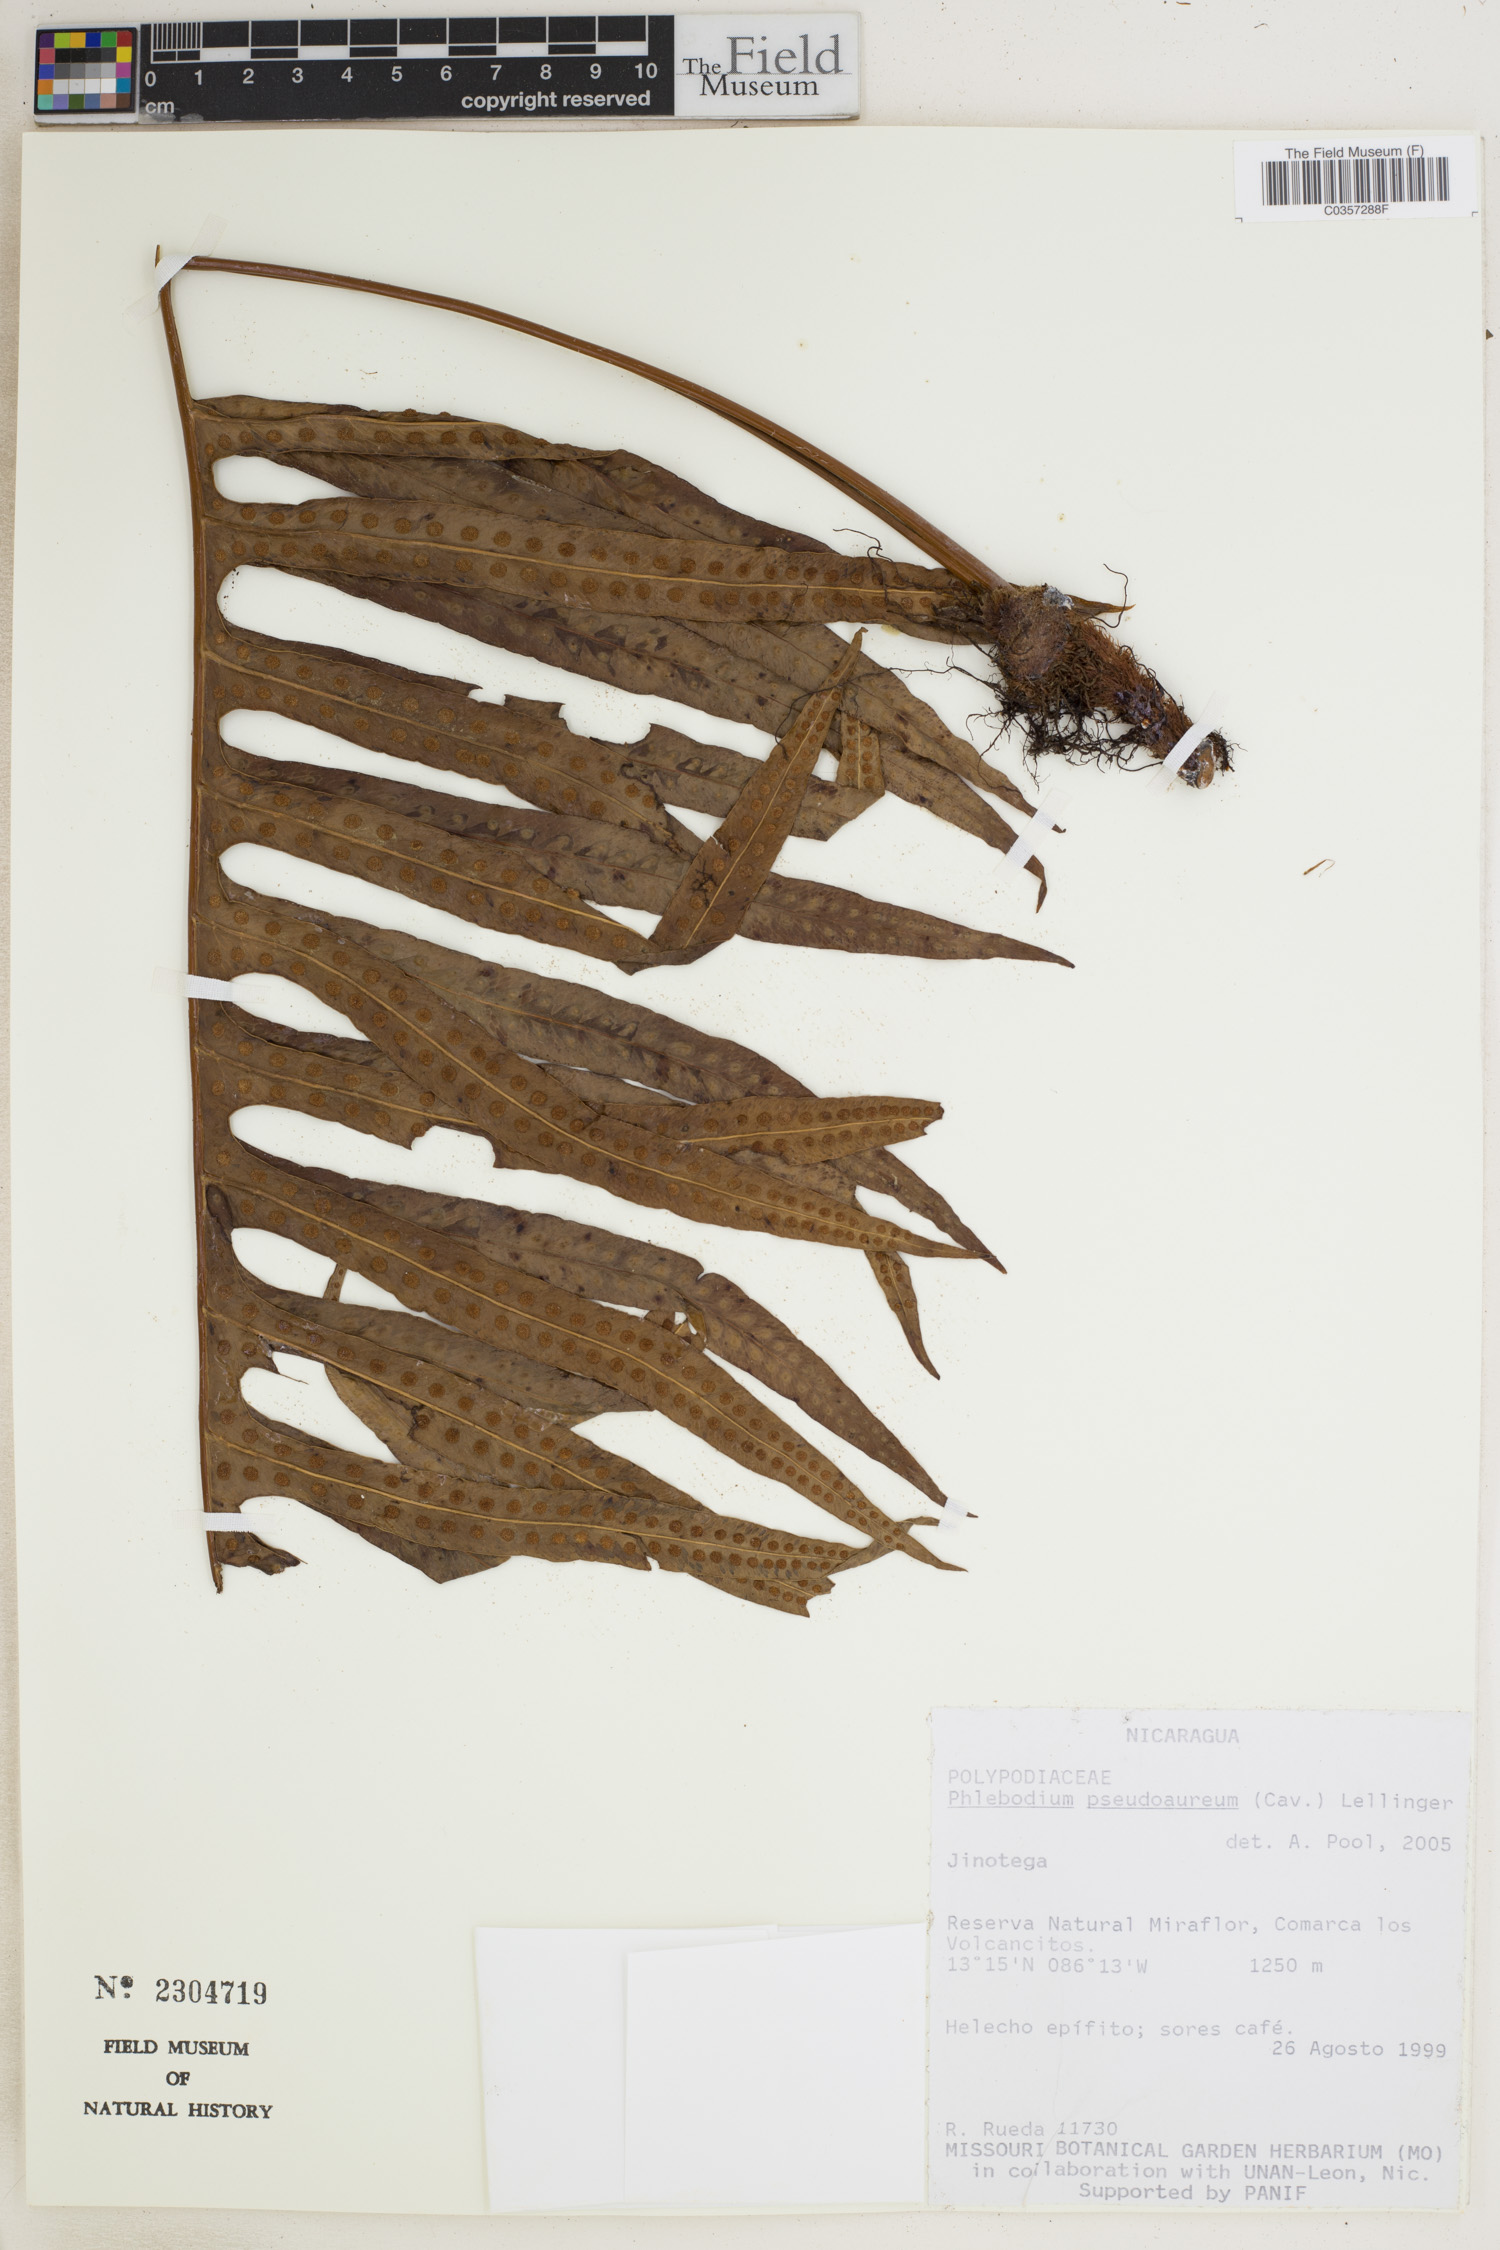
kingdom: Plantae
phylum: Tracheophyta
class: Polypodiopsida
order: Polypodiales
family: Polypodiaceae
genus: Phlebodium
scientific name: Phlebodium pseudoaureum
